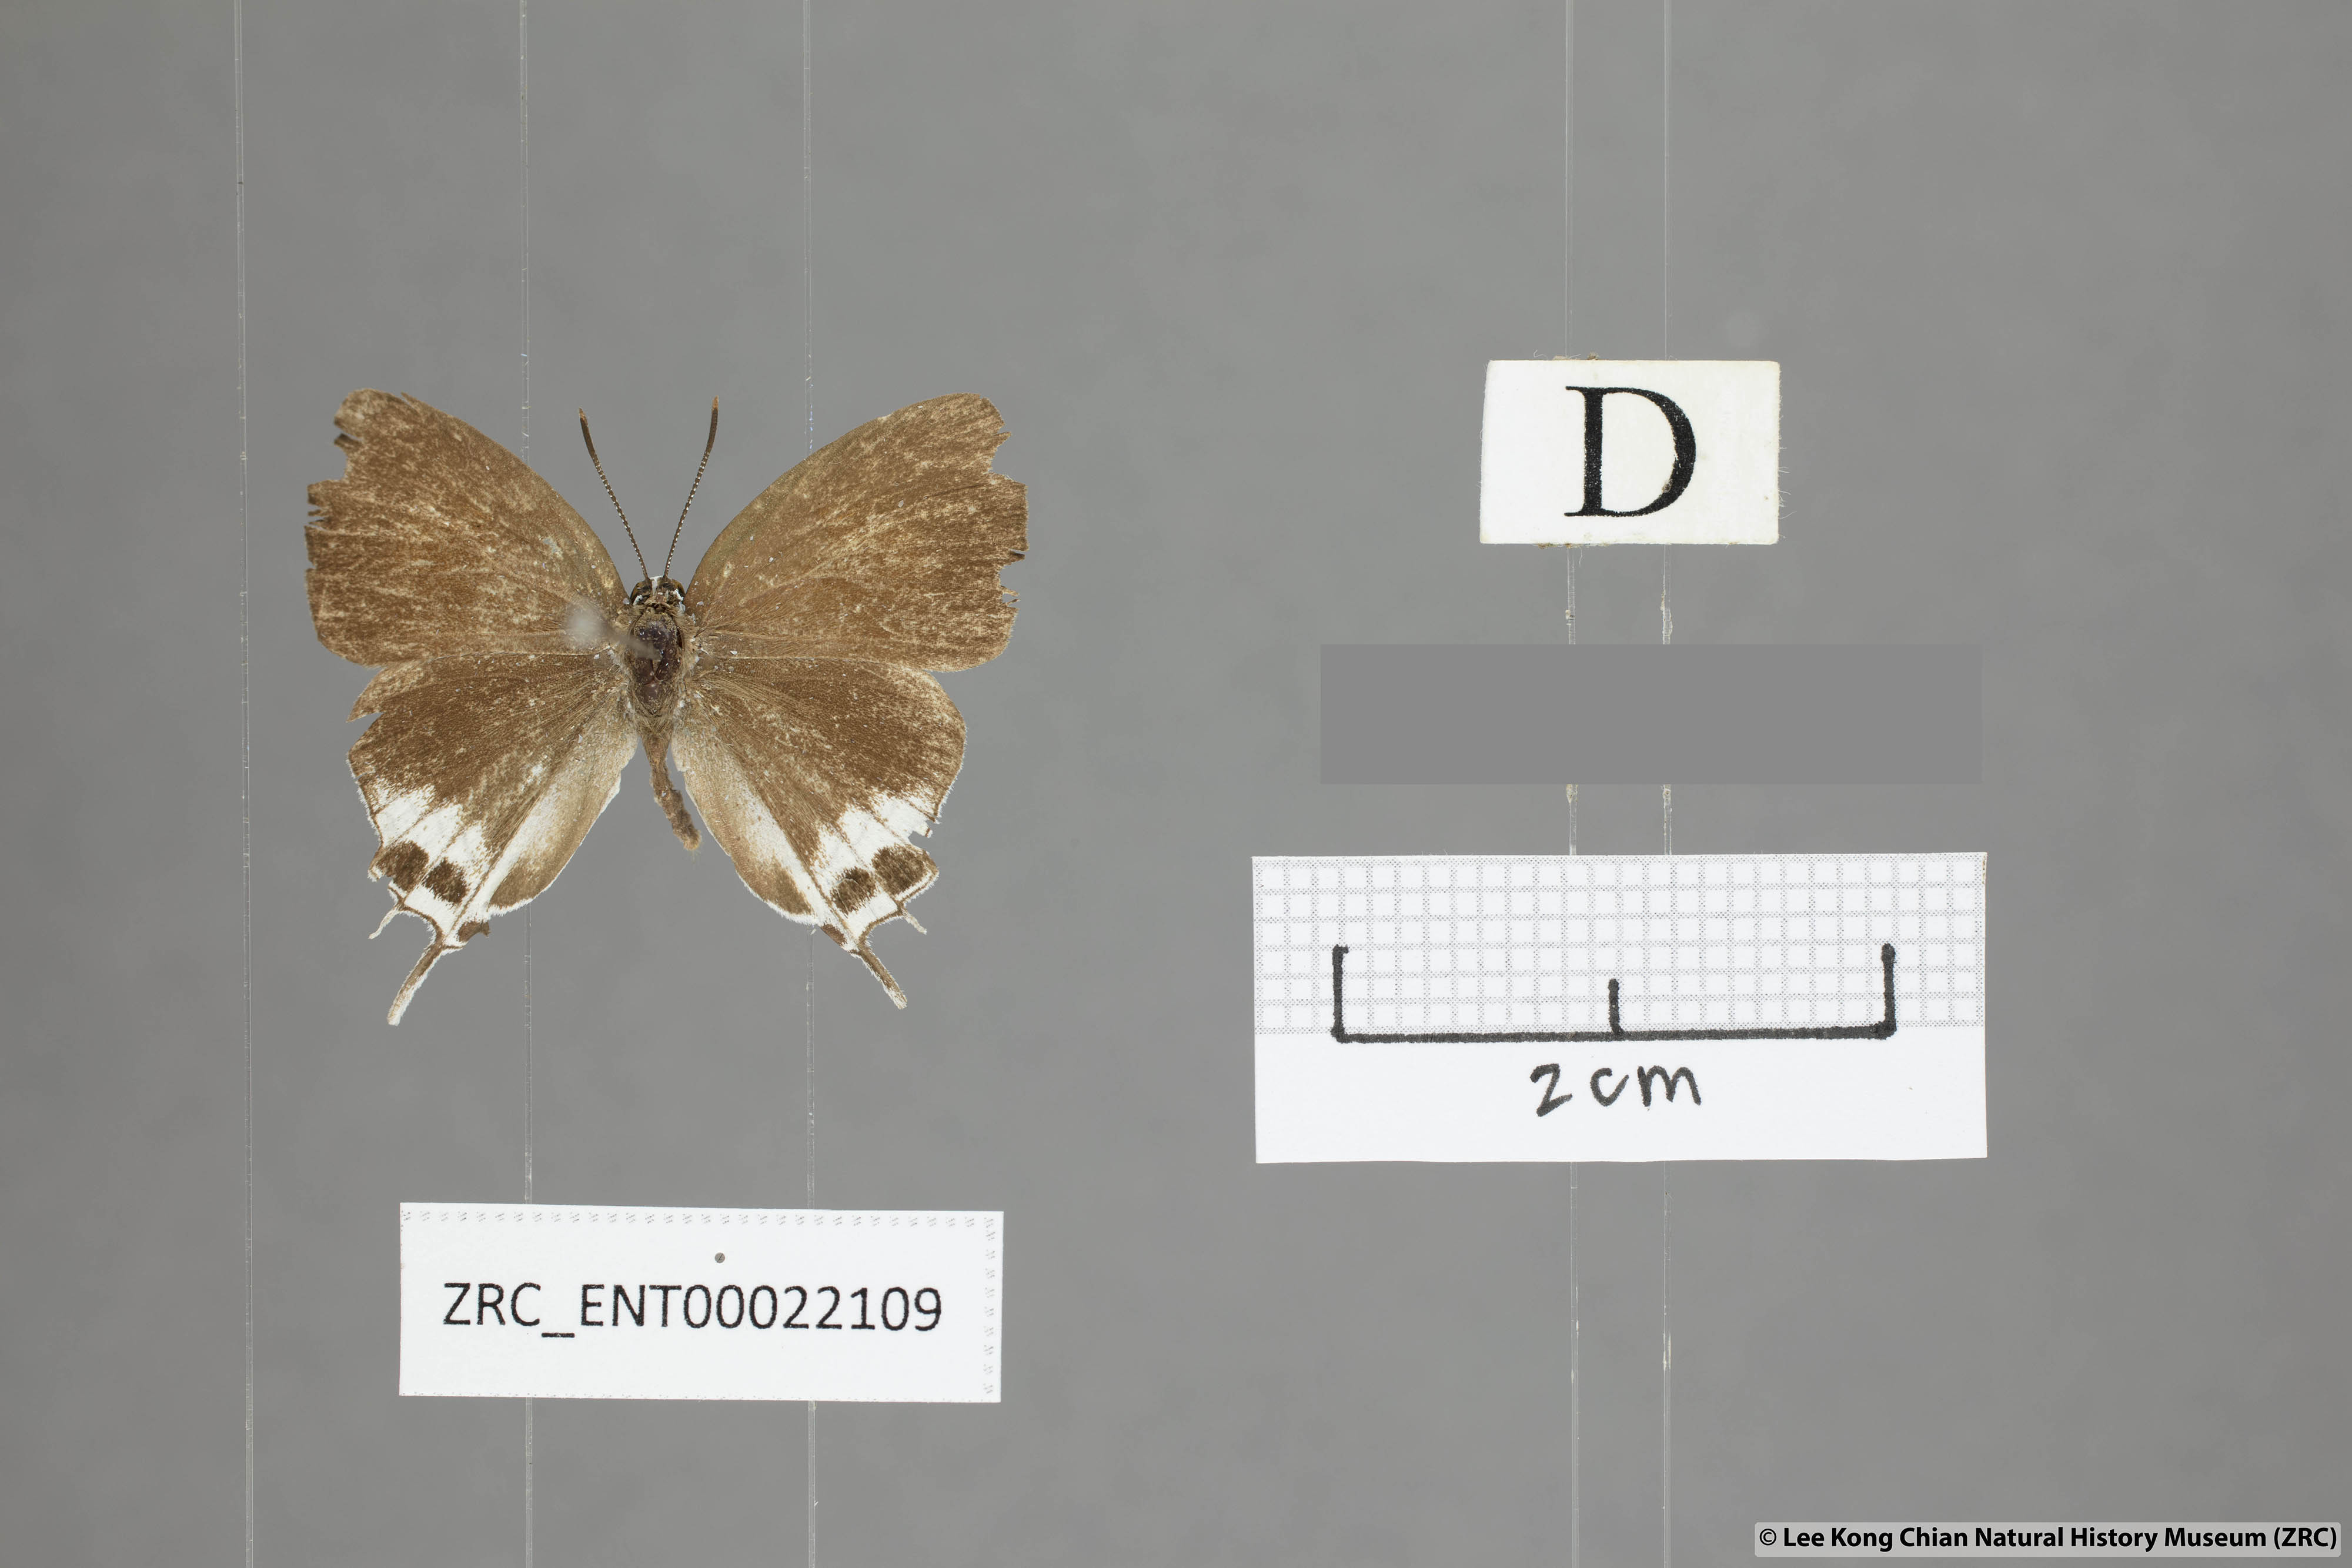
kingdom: Animalia
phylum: Arthropoda
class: Insecta
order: Lepidoptera
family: Lycaenidae
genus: Suasa
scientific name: Suasa lisides
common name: Red imperial
